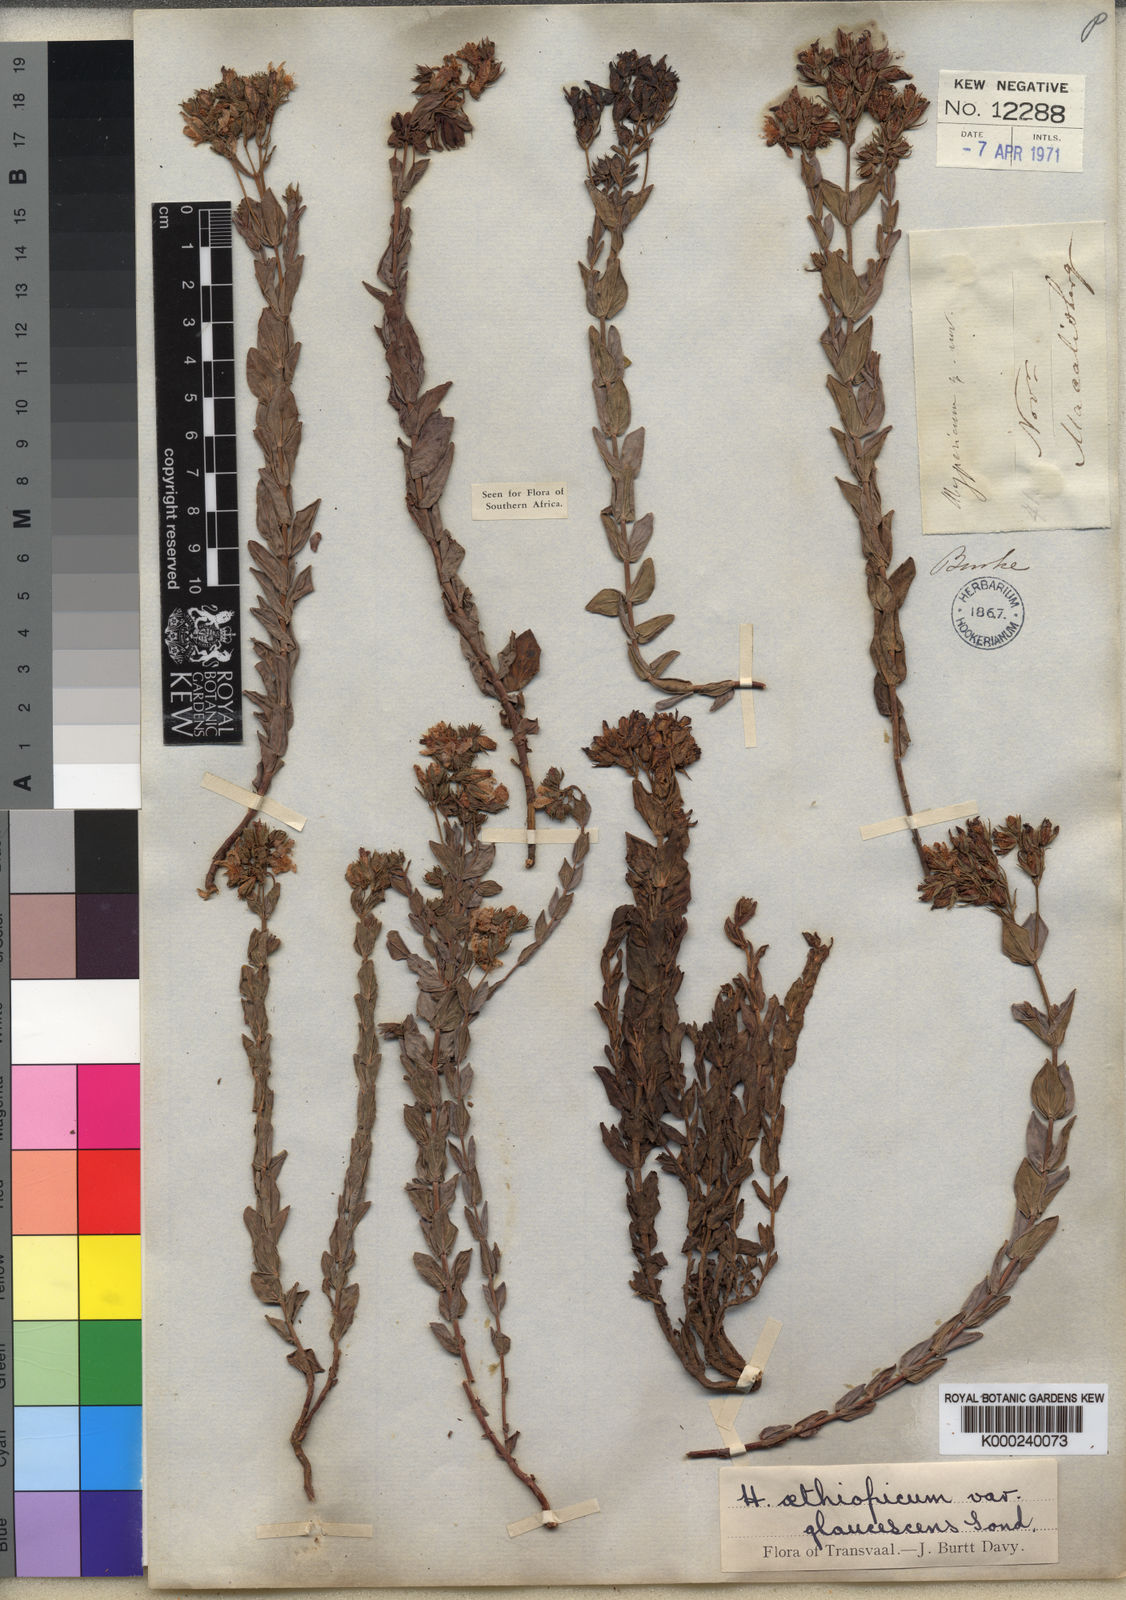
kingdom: Plantae
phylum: Tracheophyta
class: Magnoliopsida
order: Malpighiales
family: Hypericaceae
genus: Hypericum
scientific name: Hypericum aethiopicum
